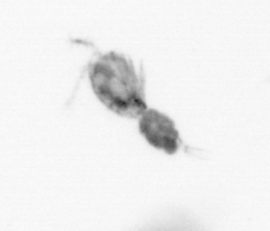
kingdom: Animalia
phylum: Arthropoda
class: Copepoda
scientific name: Copepoda
